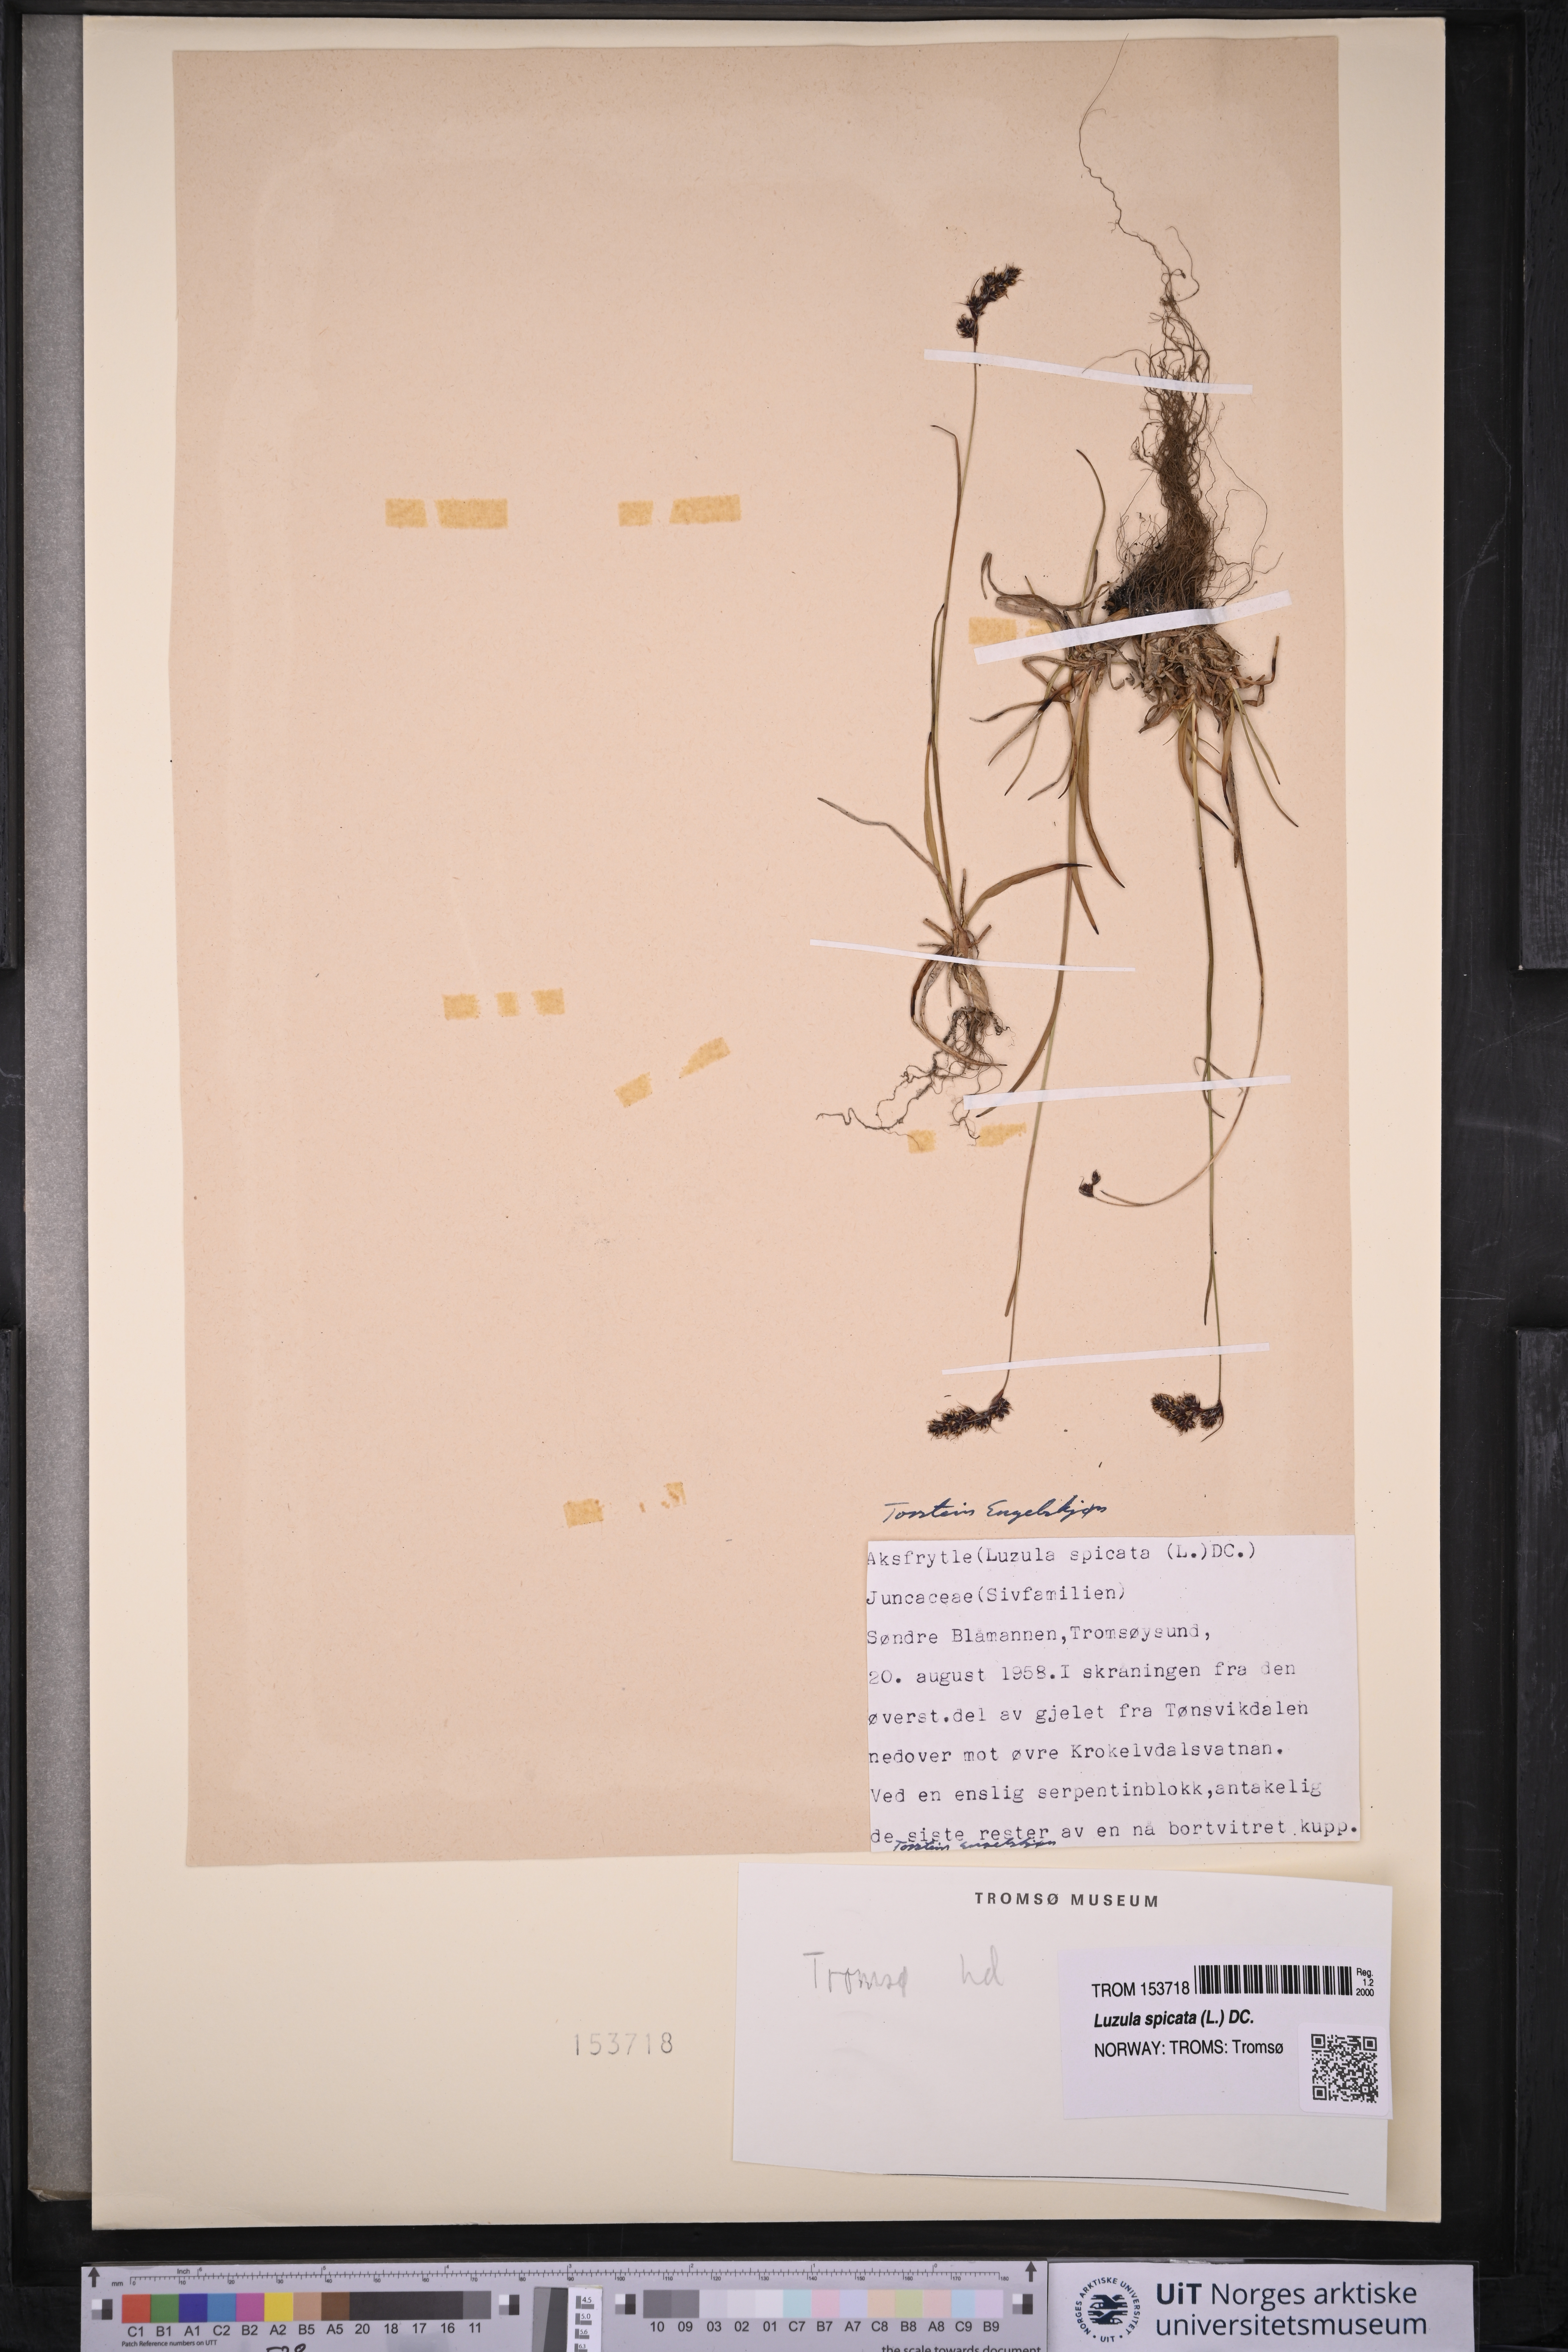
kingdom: Plantae
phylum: Tracheophyta
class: Liliopsida
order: Poales
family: Juncaceae
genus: Luzula
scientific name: Luzula spicata
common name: Spiked wood-rush
